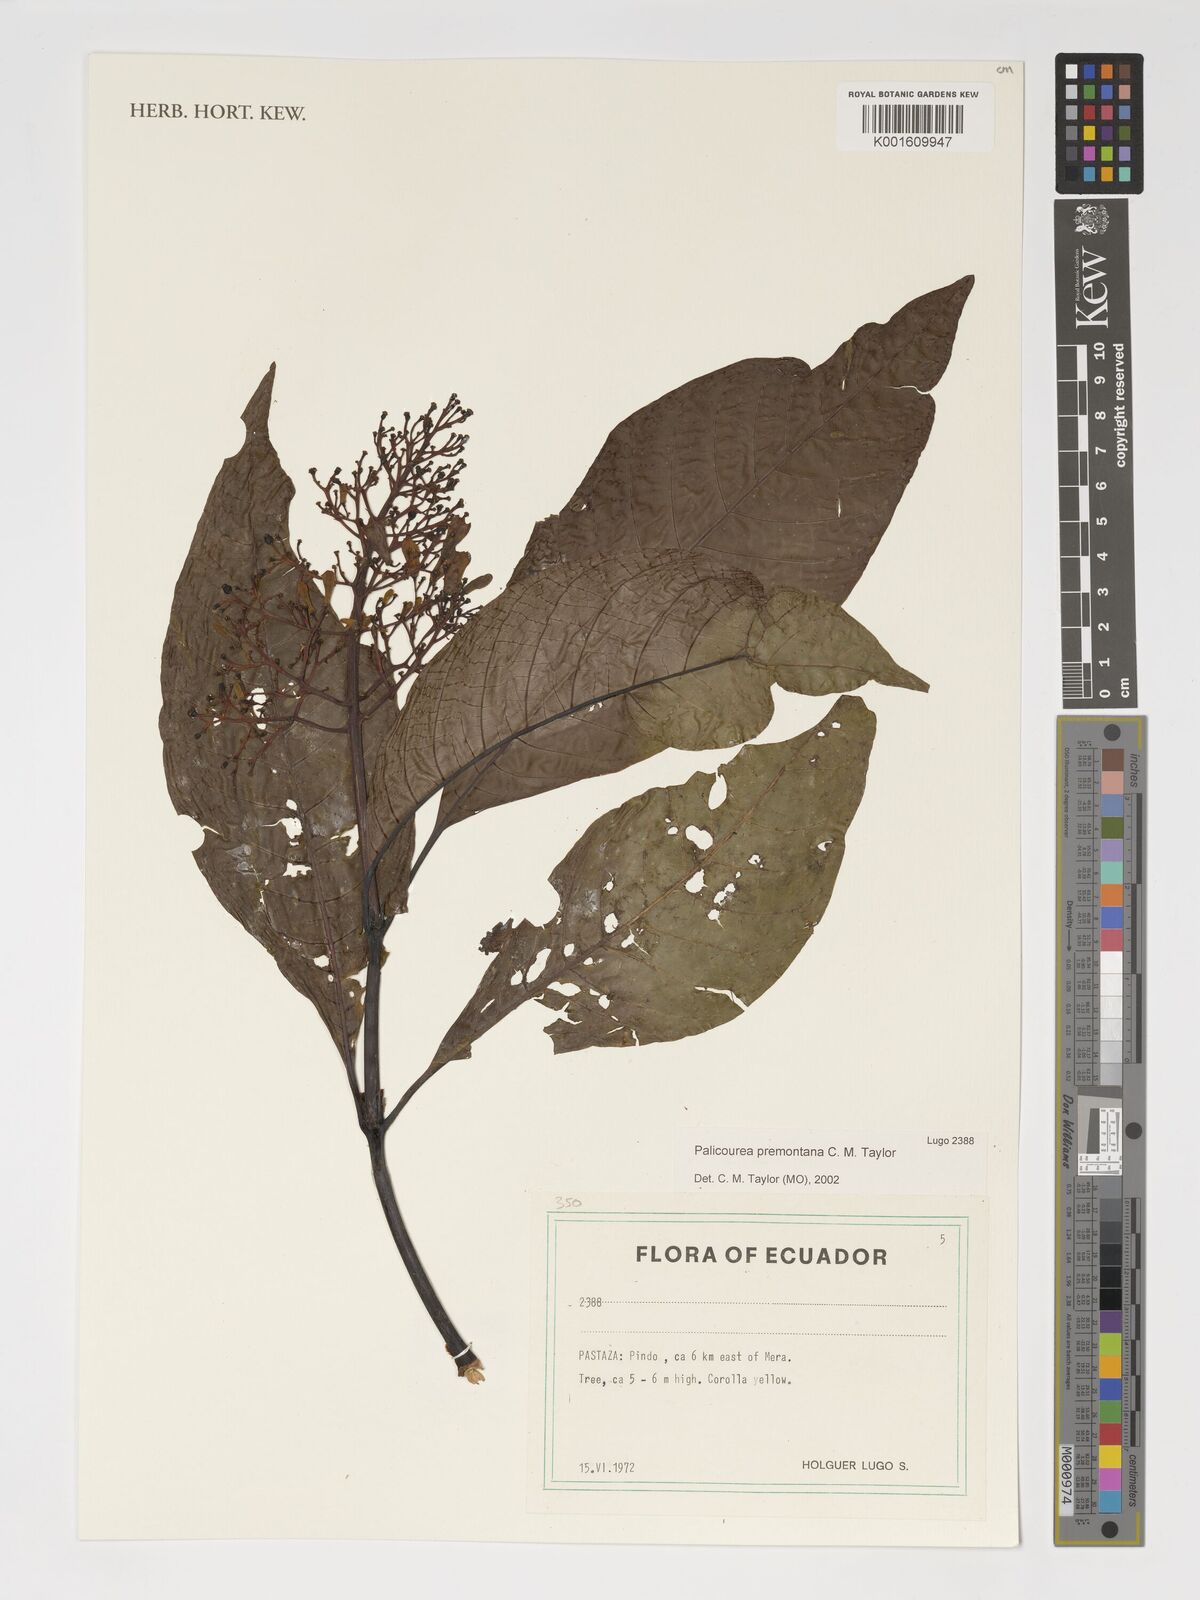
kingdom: Plantae
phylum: Tracheophyta
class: Magnoliopsida
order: Gentianales
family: Rubiaceae
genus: Palicourea
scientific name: Palicourea premontana
